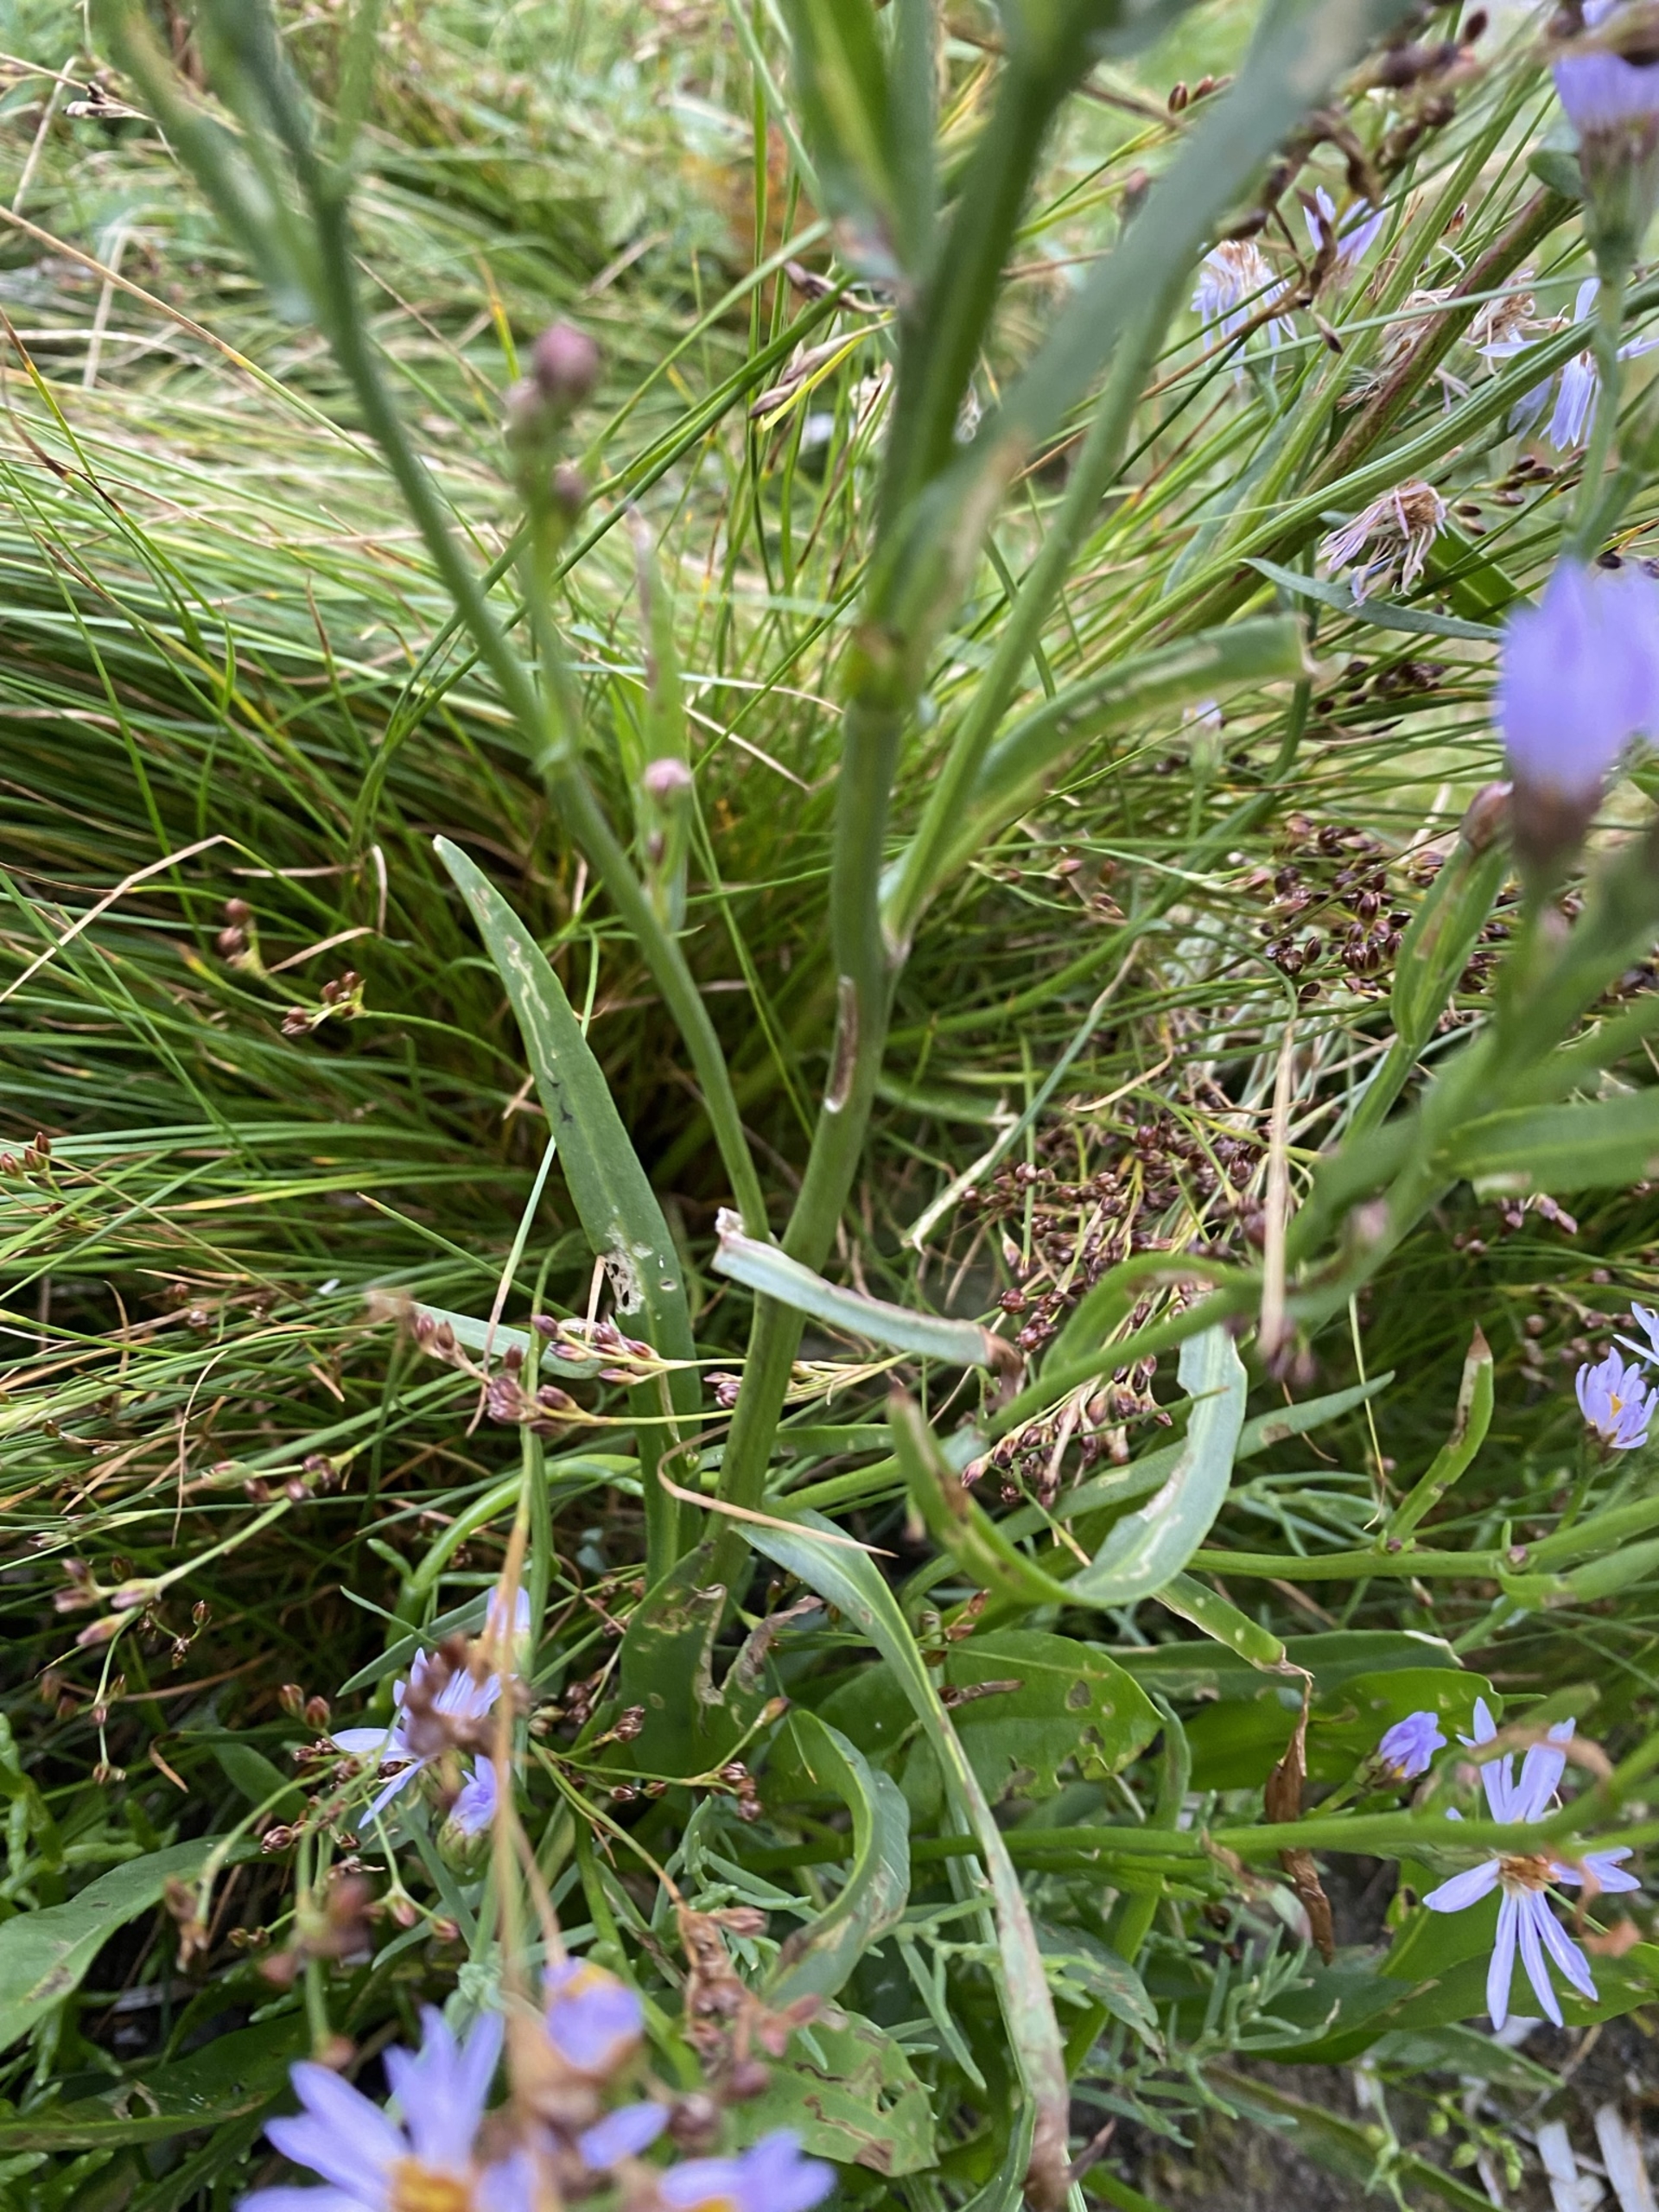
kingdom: Plantae
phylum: Tracheophyta
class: Magnoliopsida
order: Asterales
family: Asteraceae
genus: Tripolium
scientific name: Tripolium pannonicum
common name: Strandasters (underart)
